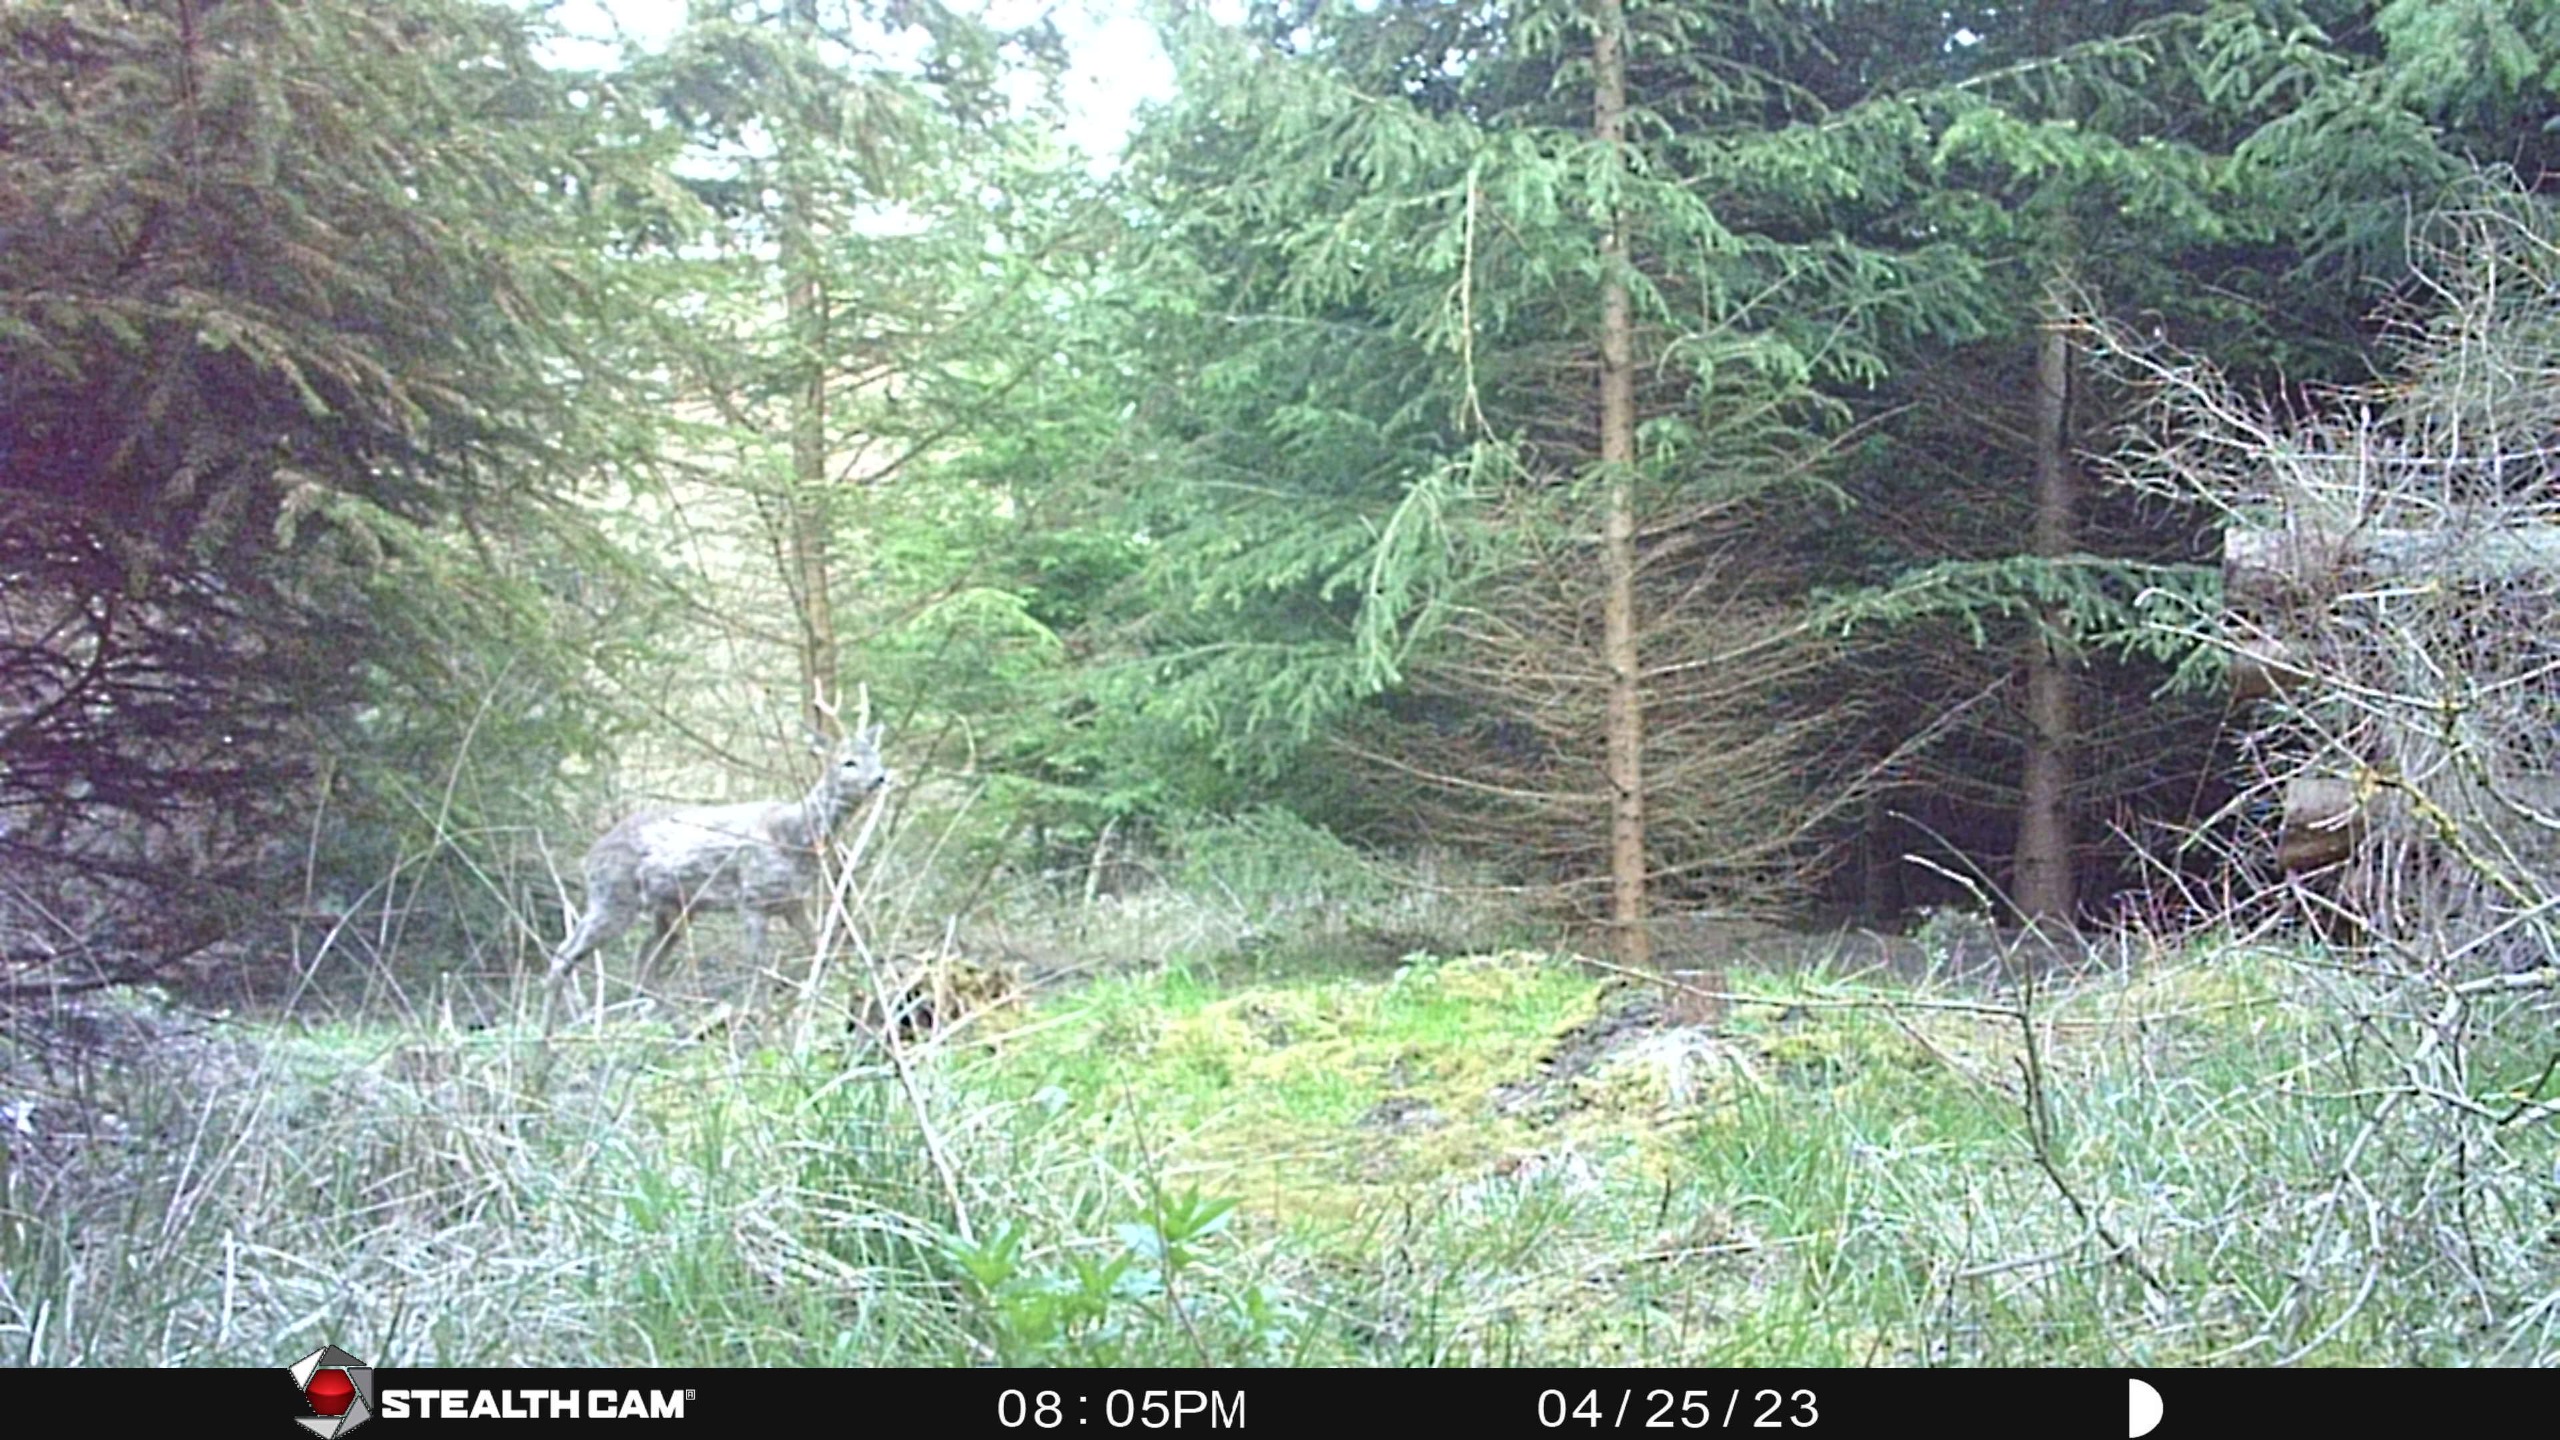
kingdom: Animalia
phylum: Chordata
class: Mammalia
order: Artiodactyla
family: Cervidae
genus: Capreolus
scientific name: Capreolus capreolus
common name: Rådyr
